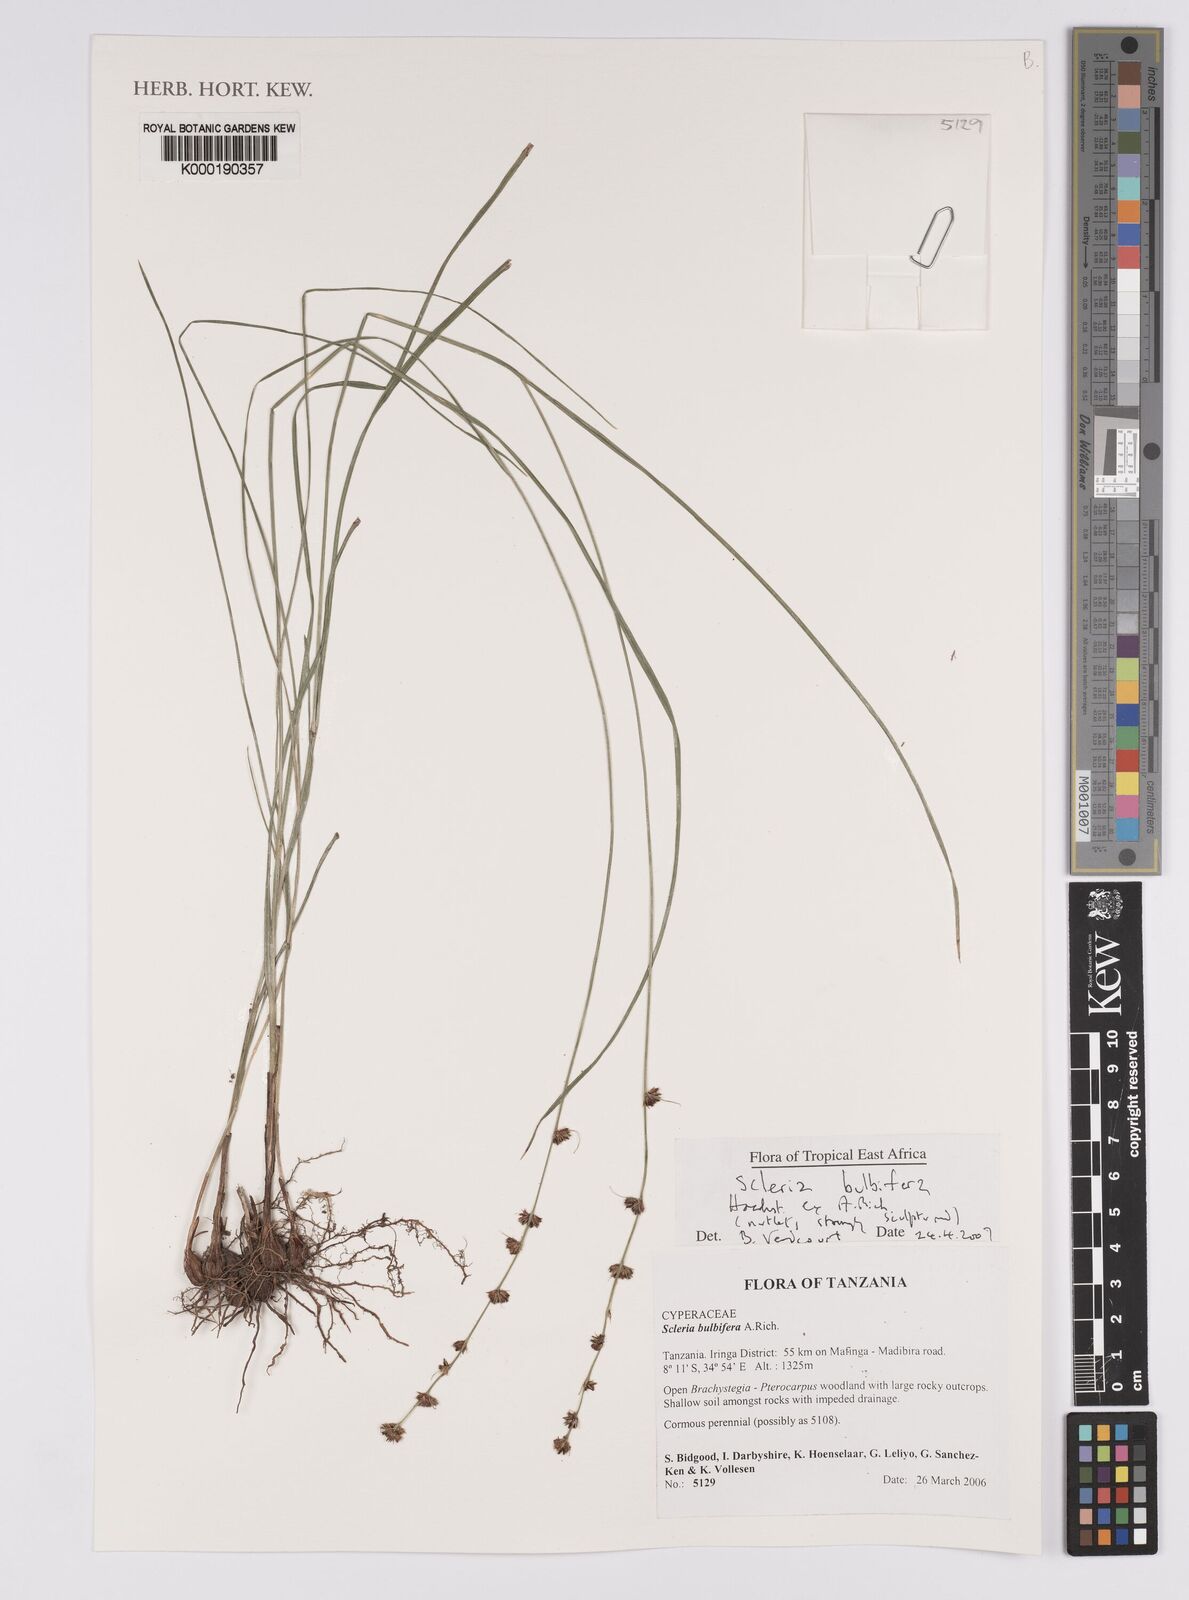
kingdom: Plantae
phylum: Tracheophyta
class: Liliopsida
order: Poales
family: Cyperaceae
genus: Scleria
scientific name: Scleria bulbifera
